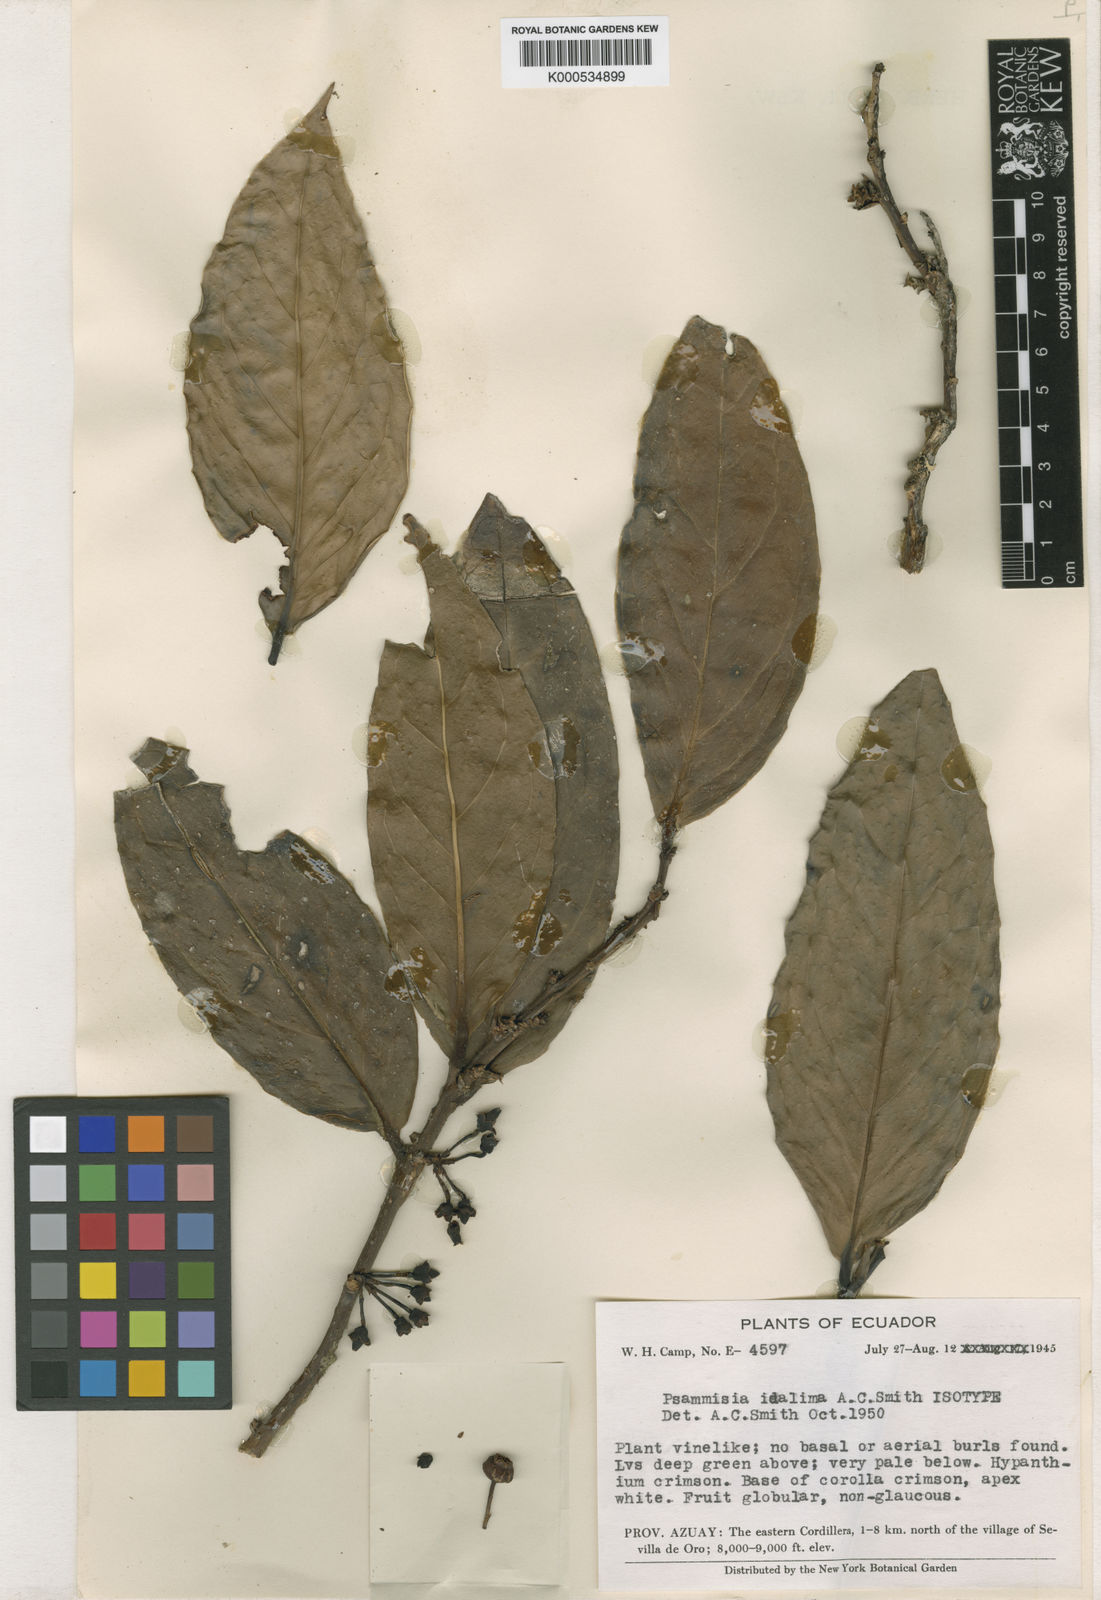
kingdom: Plantae
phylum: Tracheophyta
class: Magnoliopsida
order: Ericales
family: Ericaceae
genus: Psammisia
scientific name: Psammisia idalima
